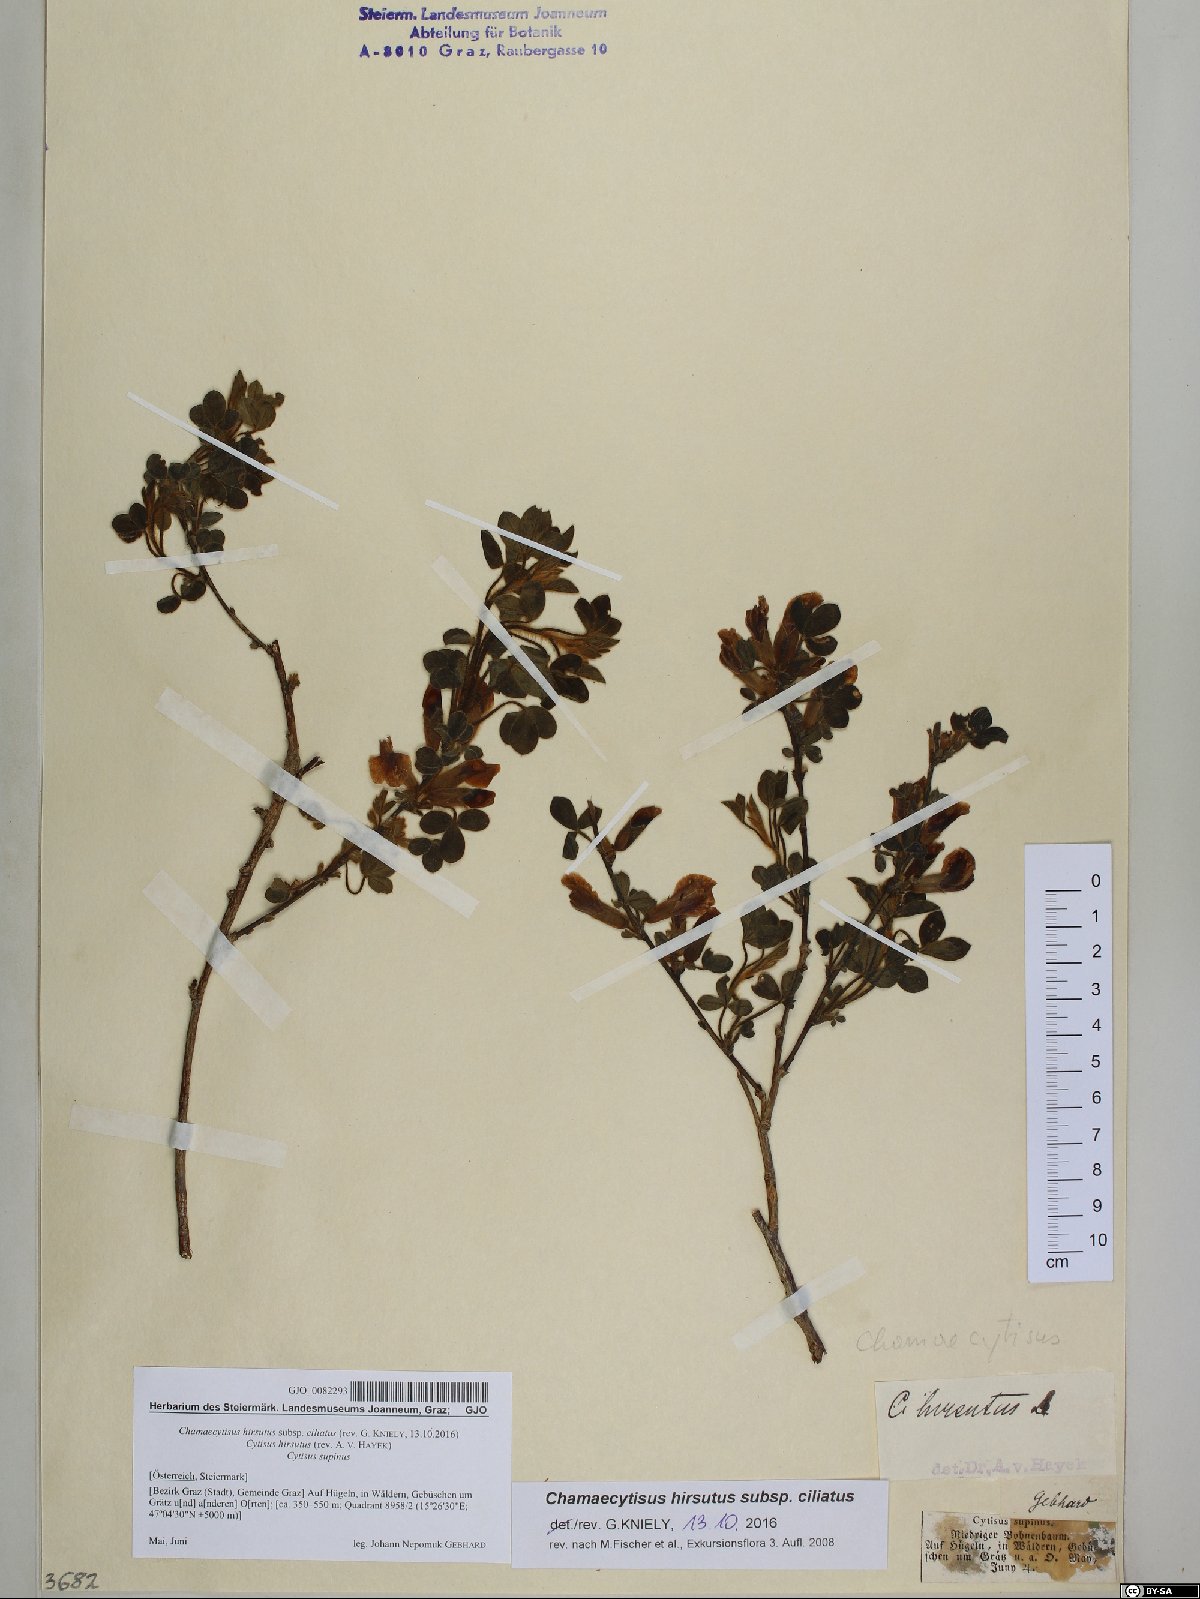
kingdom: Plantae
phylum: Tracheophyta
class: Magnoliopsida
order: Fabales
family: Fabaceae
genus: Chamaecytisus
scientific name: Chamaecytisus hirsutus
